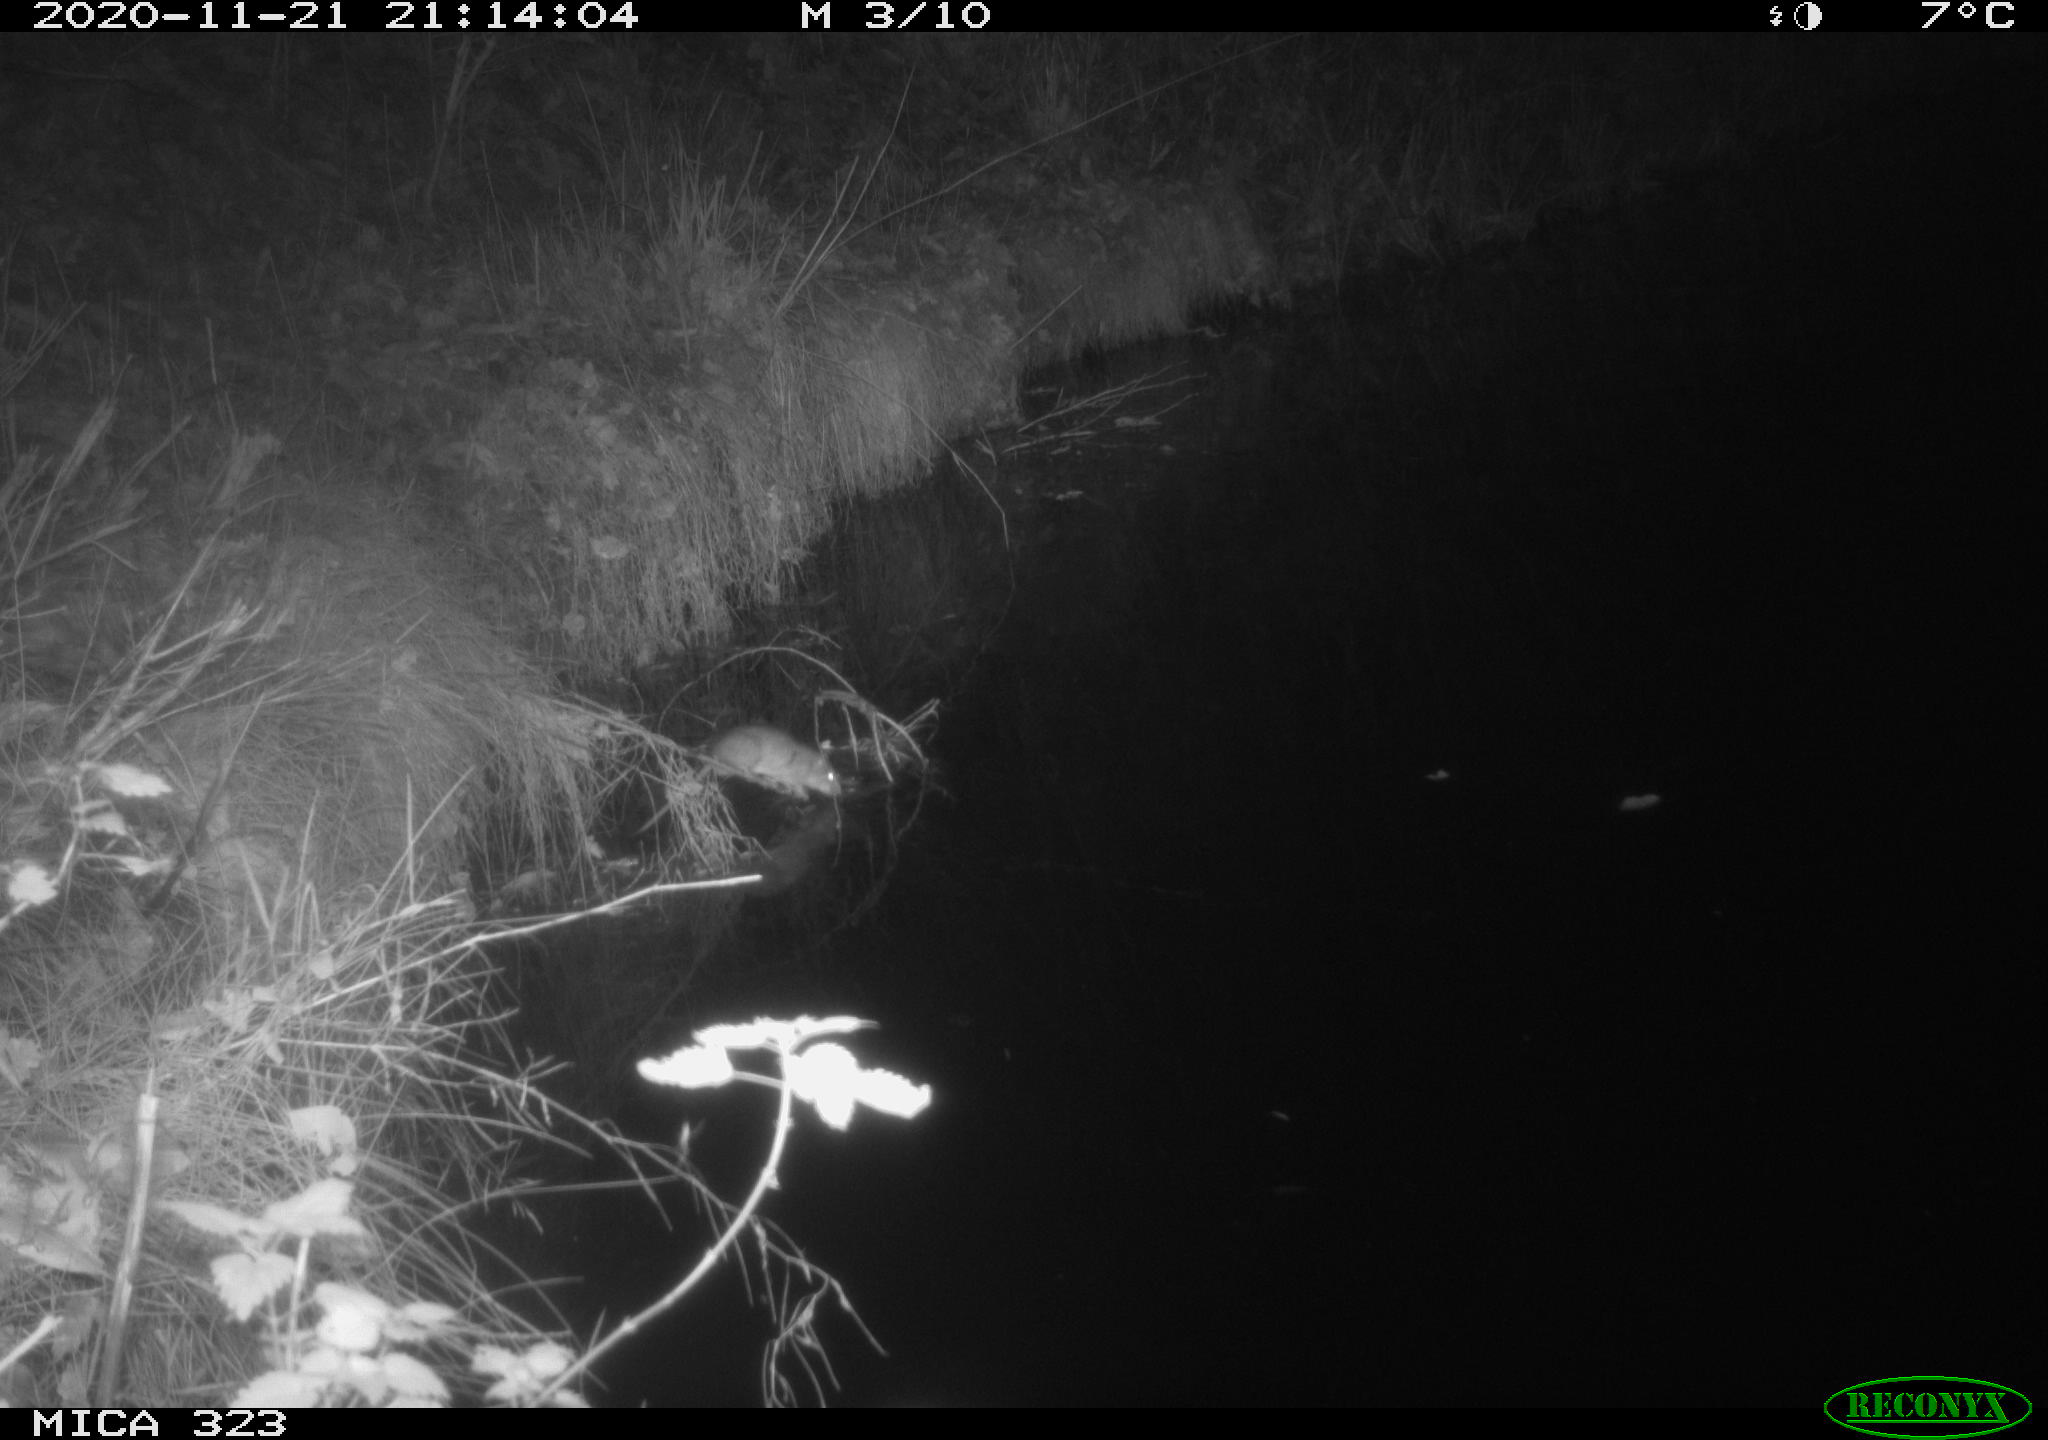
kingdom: Animalia
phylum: Chordata
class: Mammalia
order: Rodentia
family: Muridae
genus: Rattus
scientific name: Rattus norvegicus
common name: Brown rat
